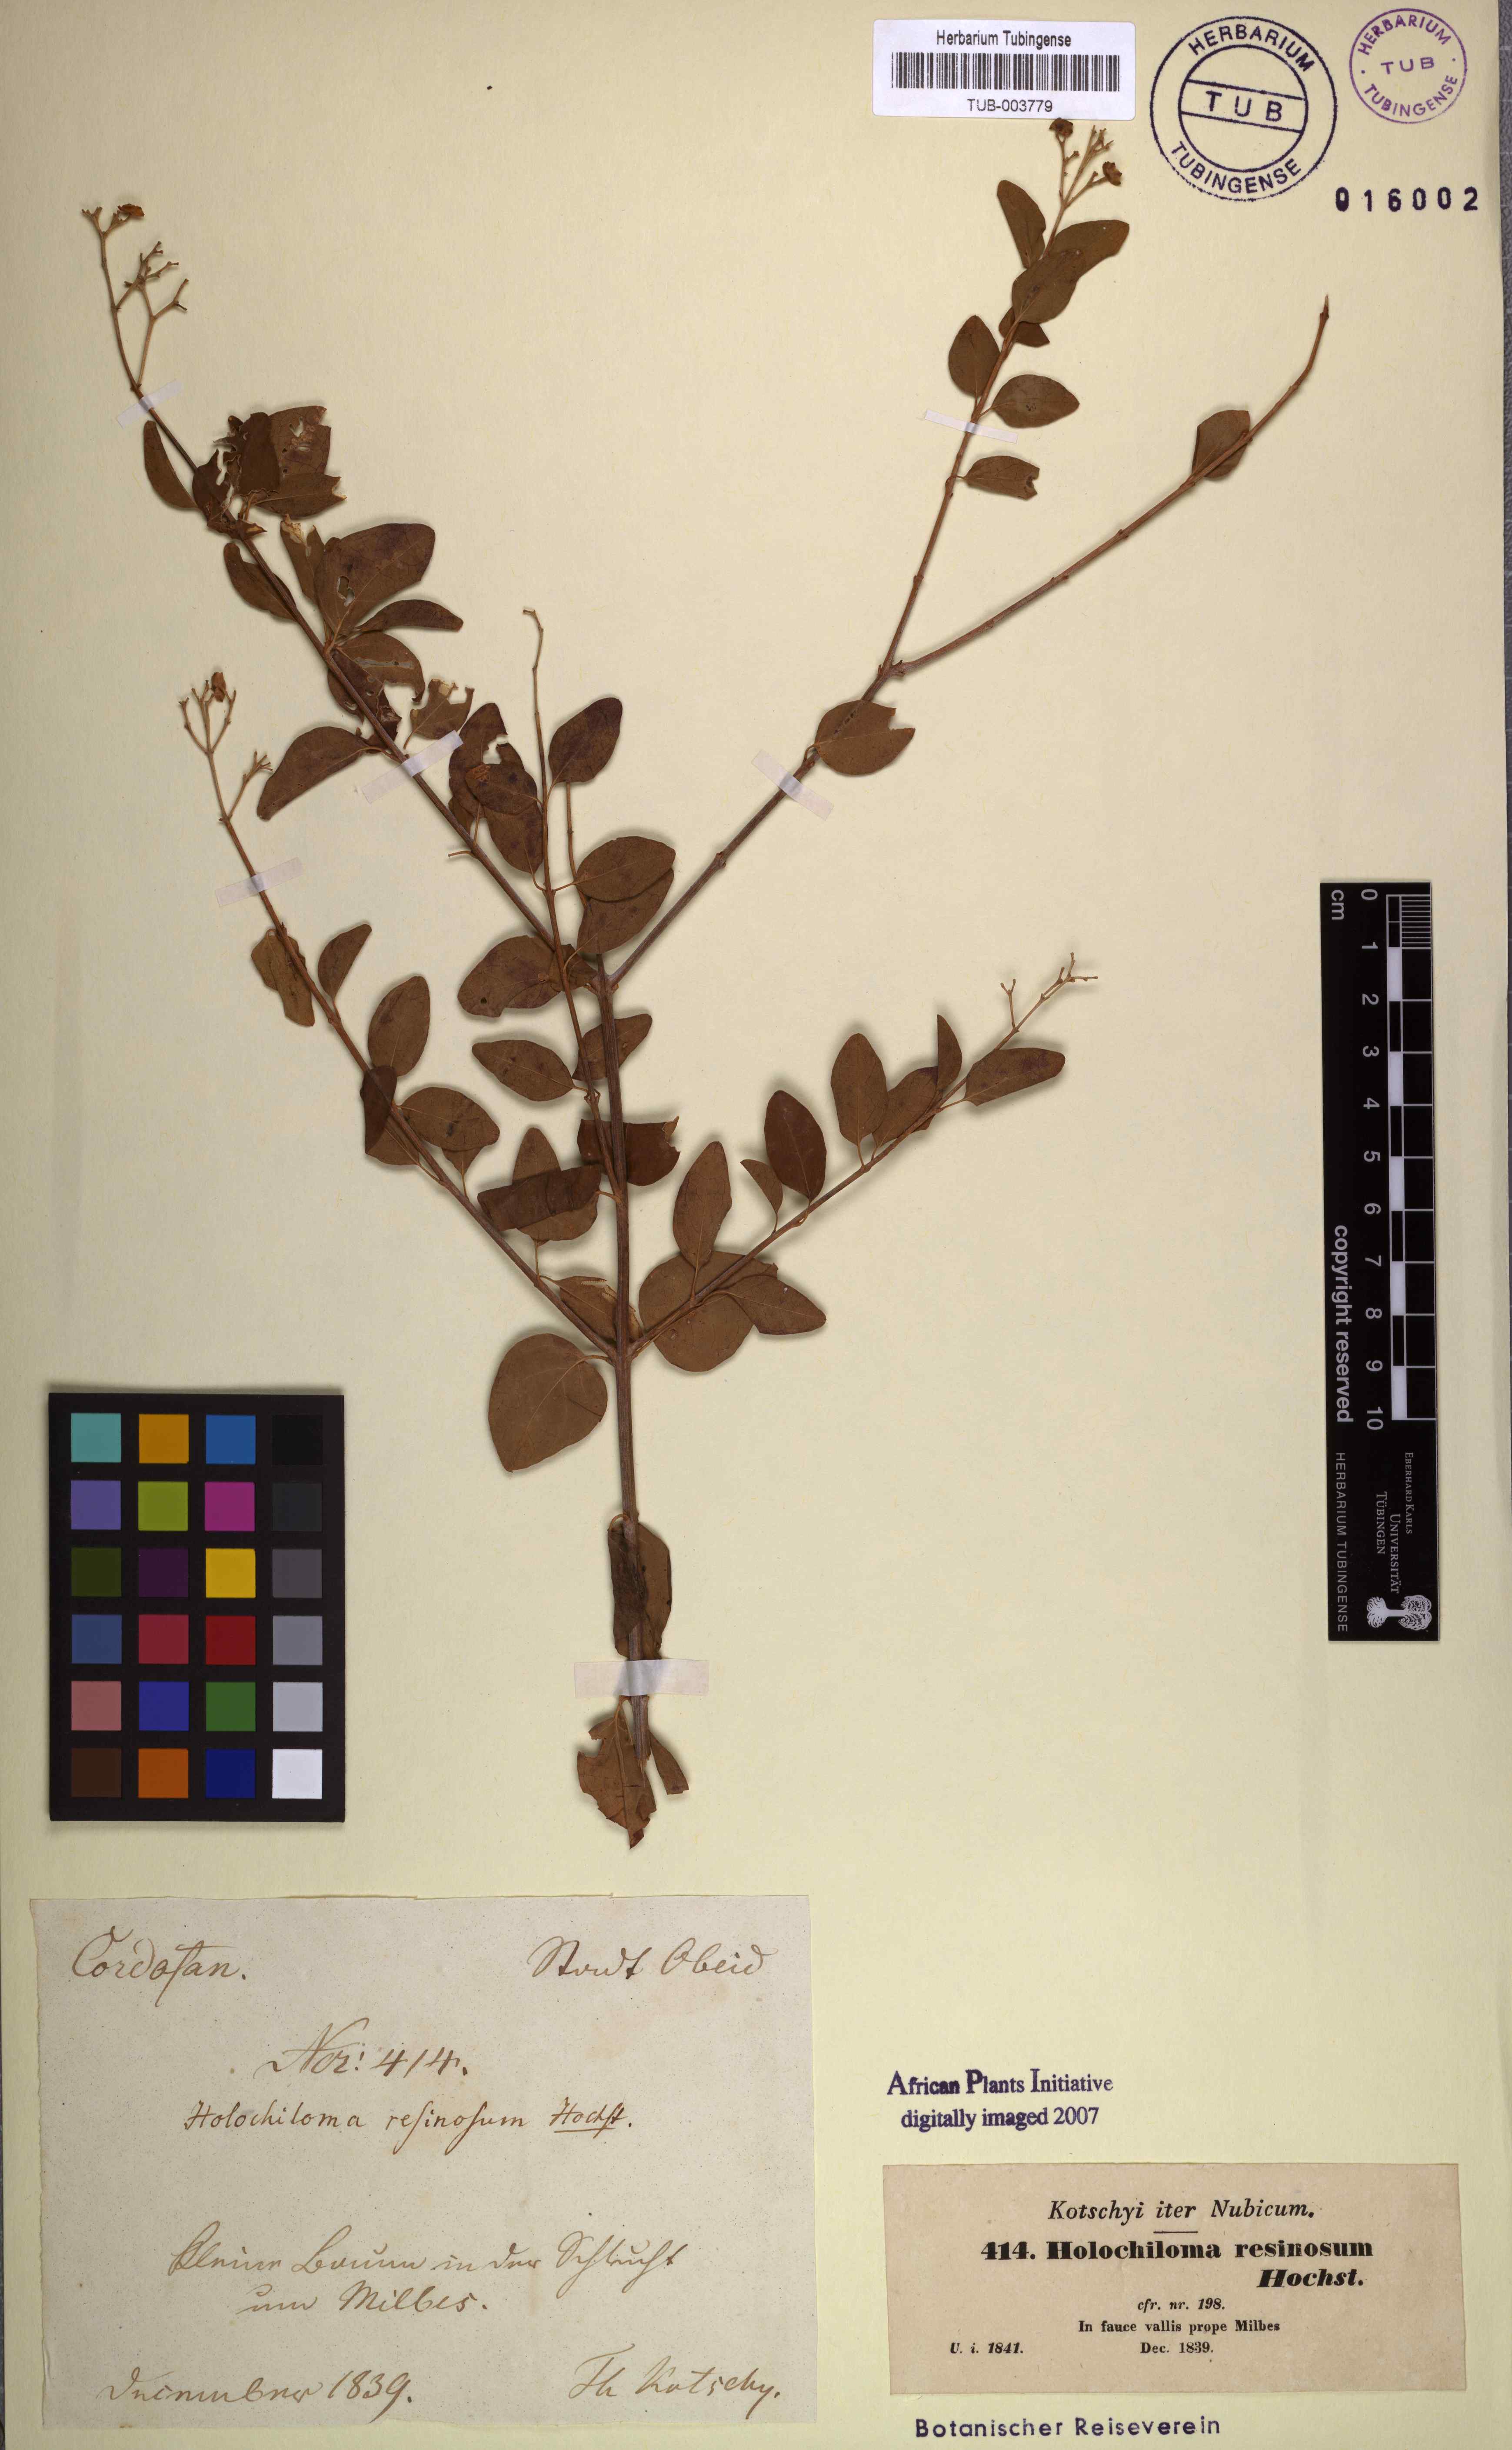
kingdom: Plantae
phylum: Tracheophyta
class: Magnoliopsida
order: Lamiales
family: Lamiaceae
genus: Premna
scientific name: Premna resinosa
